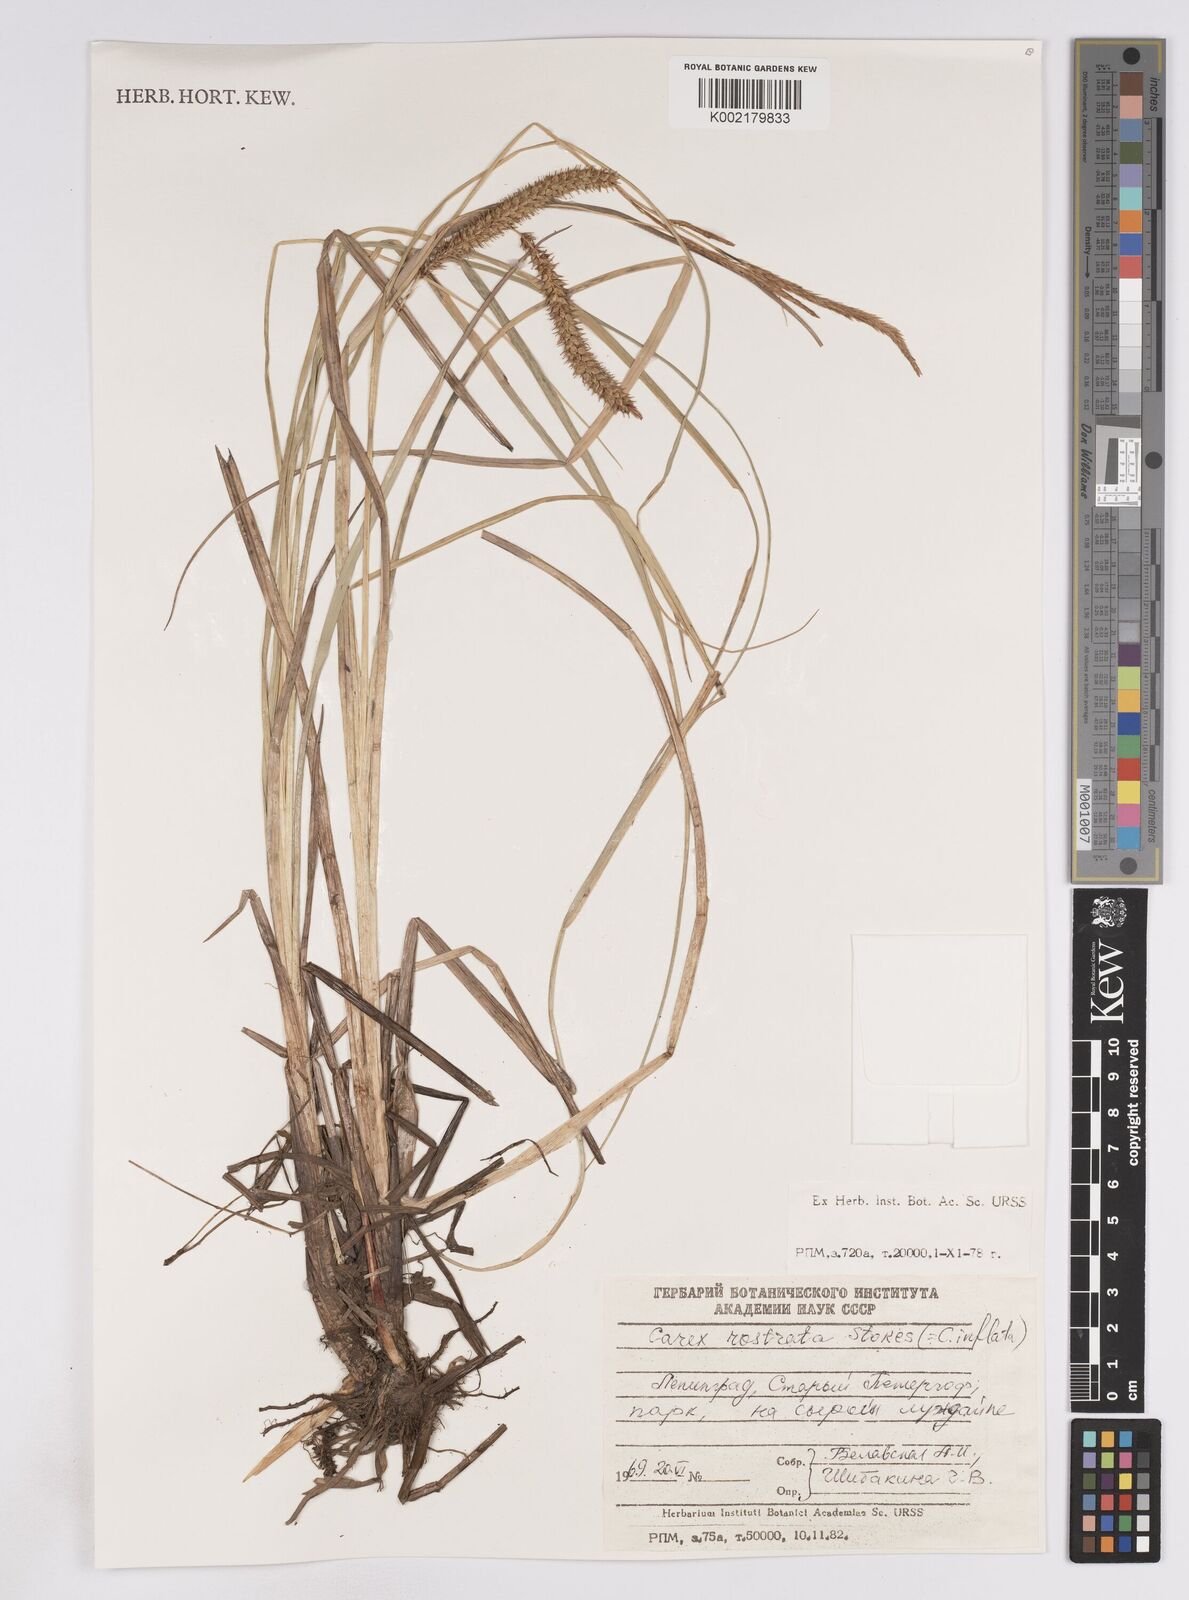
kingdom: Plantae
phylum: Tracheophyta
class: Liliopsida
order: Poales
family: Cyperaceae
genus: Carex
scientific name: Carex rostrata
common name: Bottle sedge
